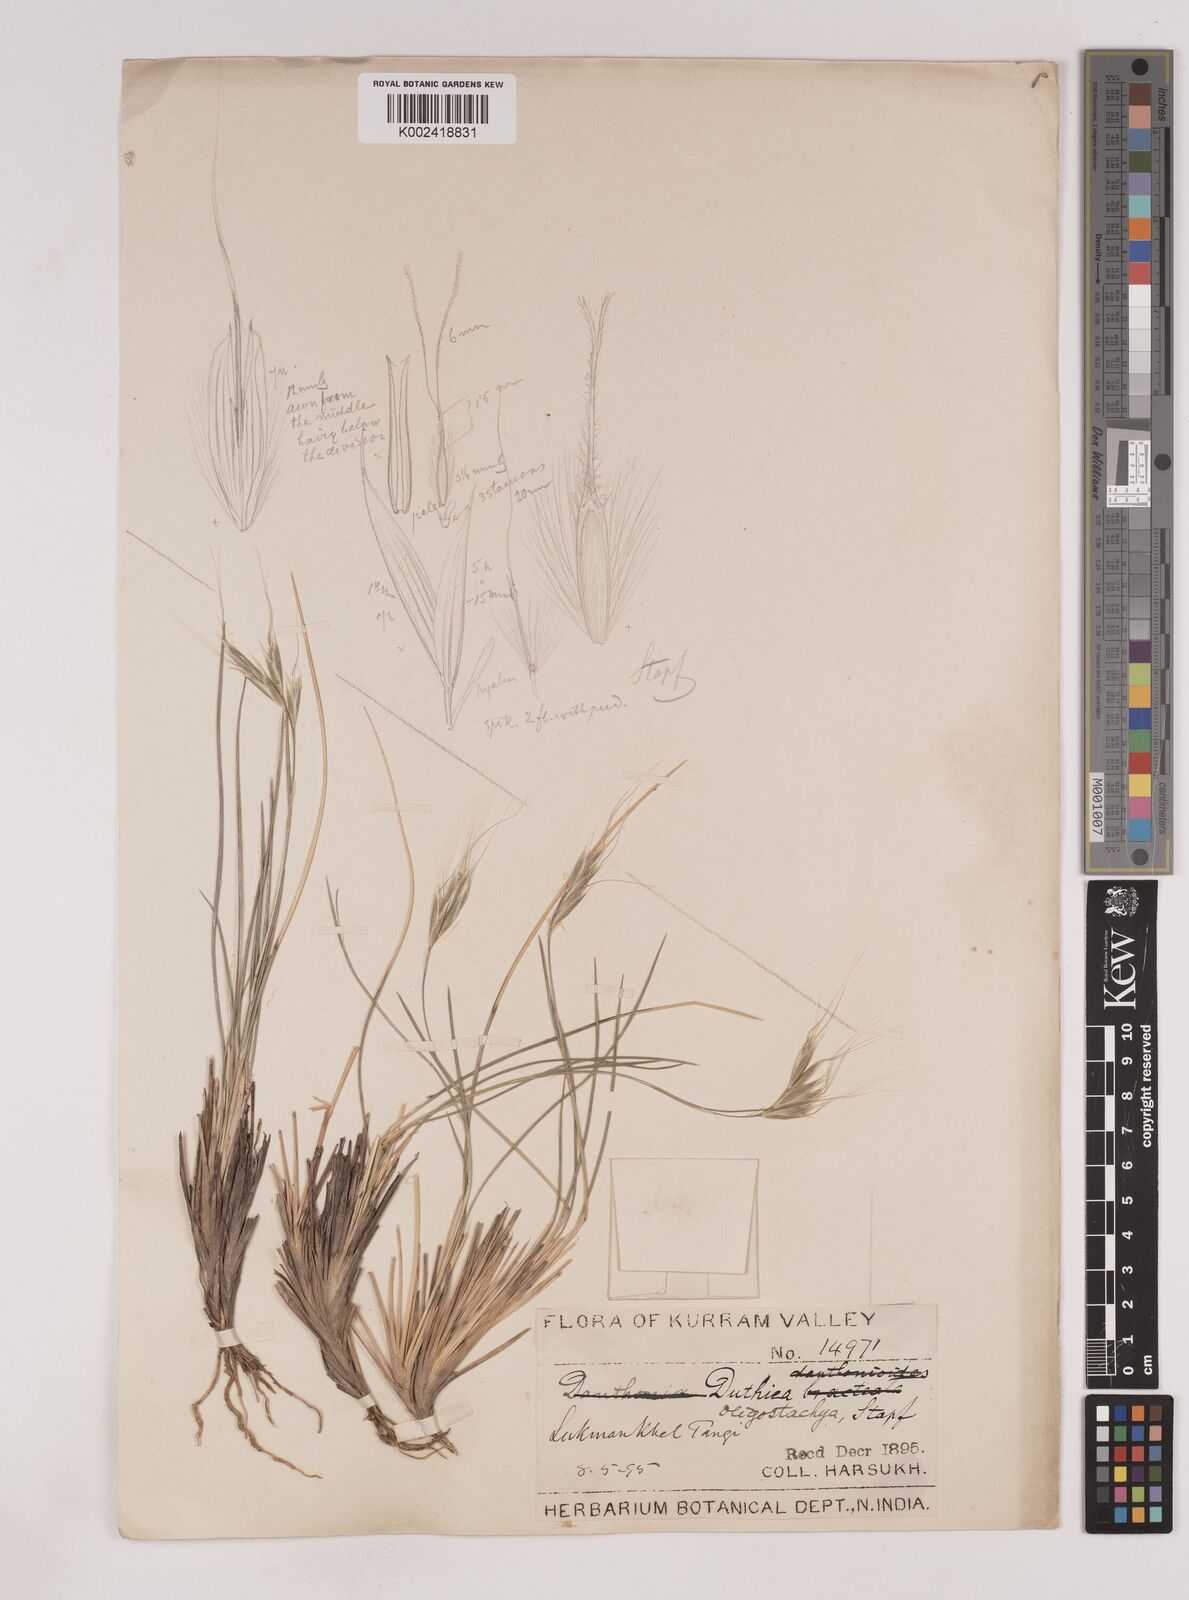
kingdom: Plantae
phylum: Tracheophyta
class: Liliopsida
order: Poales
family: Poaceae
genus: Duthiea
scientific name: Duthiea oligostachya
